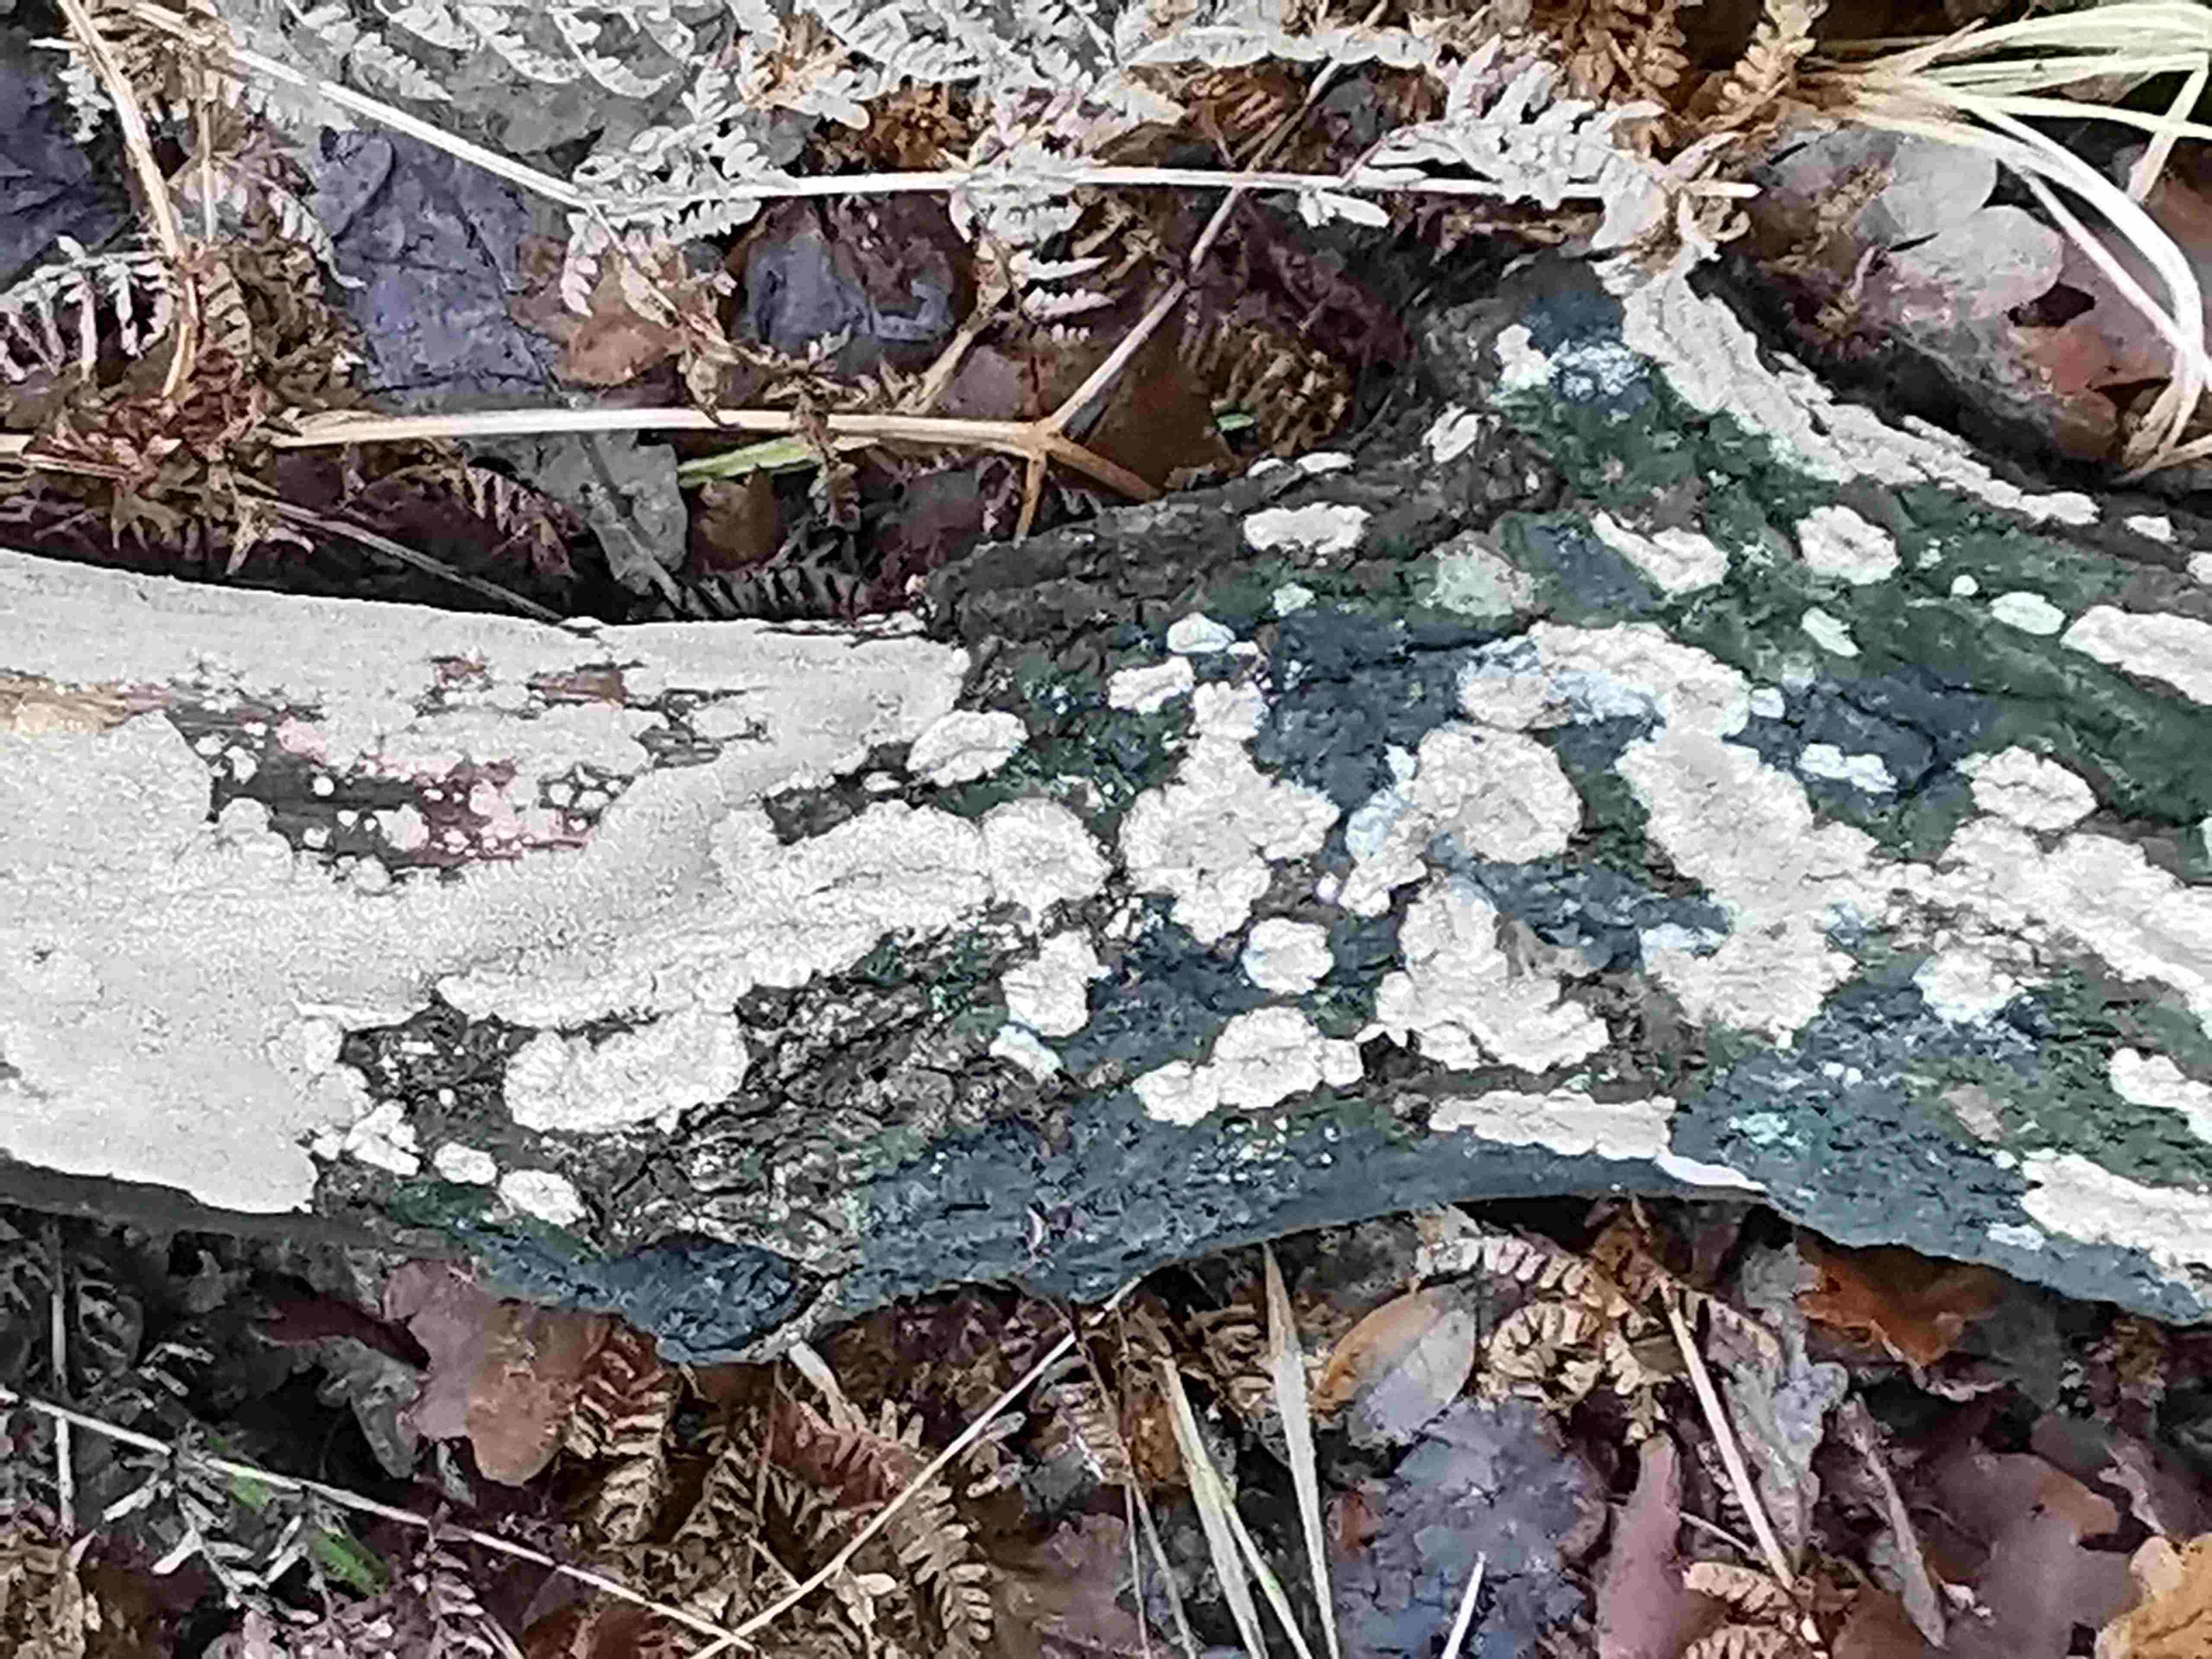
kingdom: Fungi
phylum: Basidiomycota
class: Agaricomycetes
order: Polyporales
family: Meruliaceae
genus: Phlebia
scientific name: Phlebia radiata
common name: stråle-åresvamp
